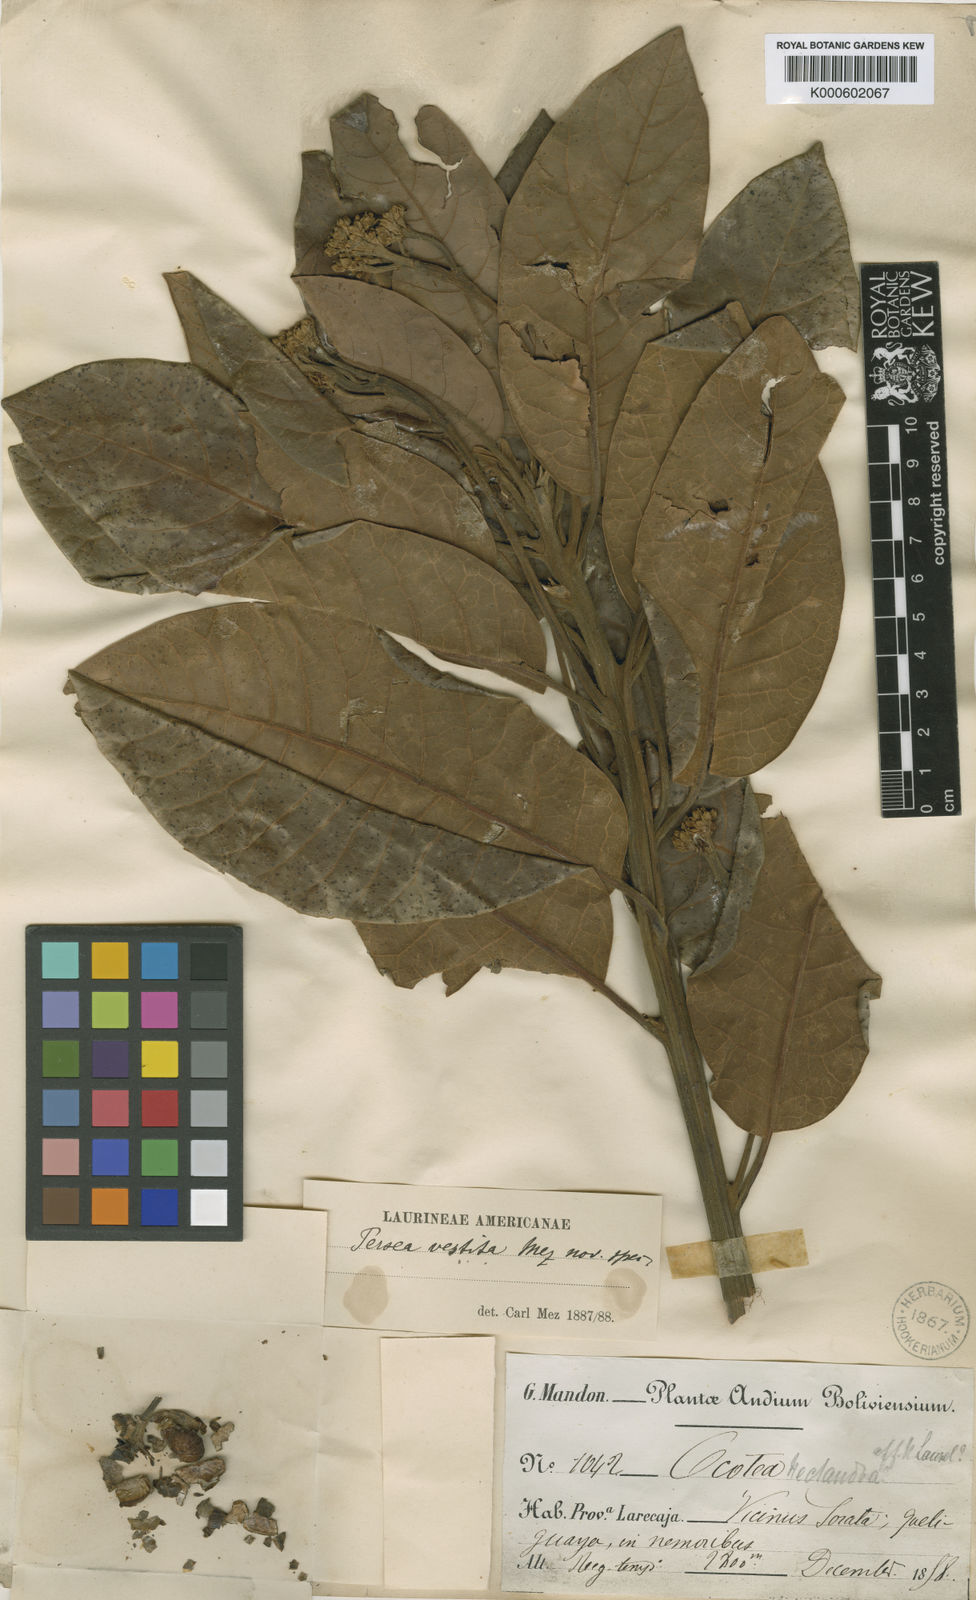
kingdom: Plantae
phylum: Tracheophyta
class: Magnoliopsida
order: Laurales
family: Lauraceae
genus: Persea
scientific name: Persea subcordata
